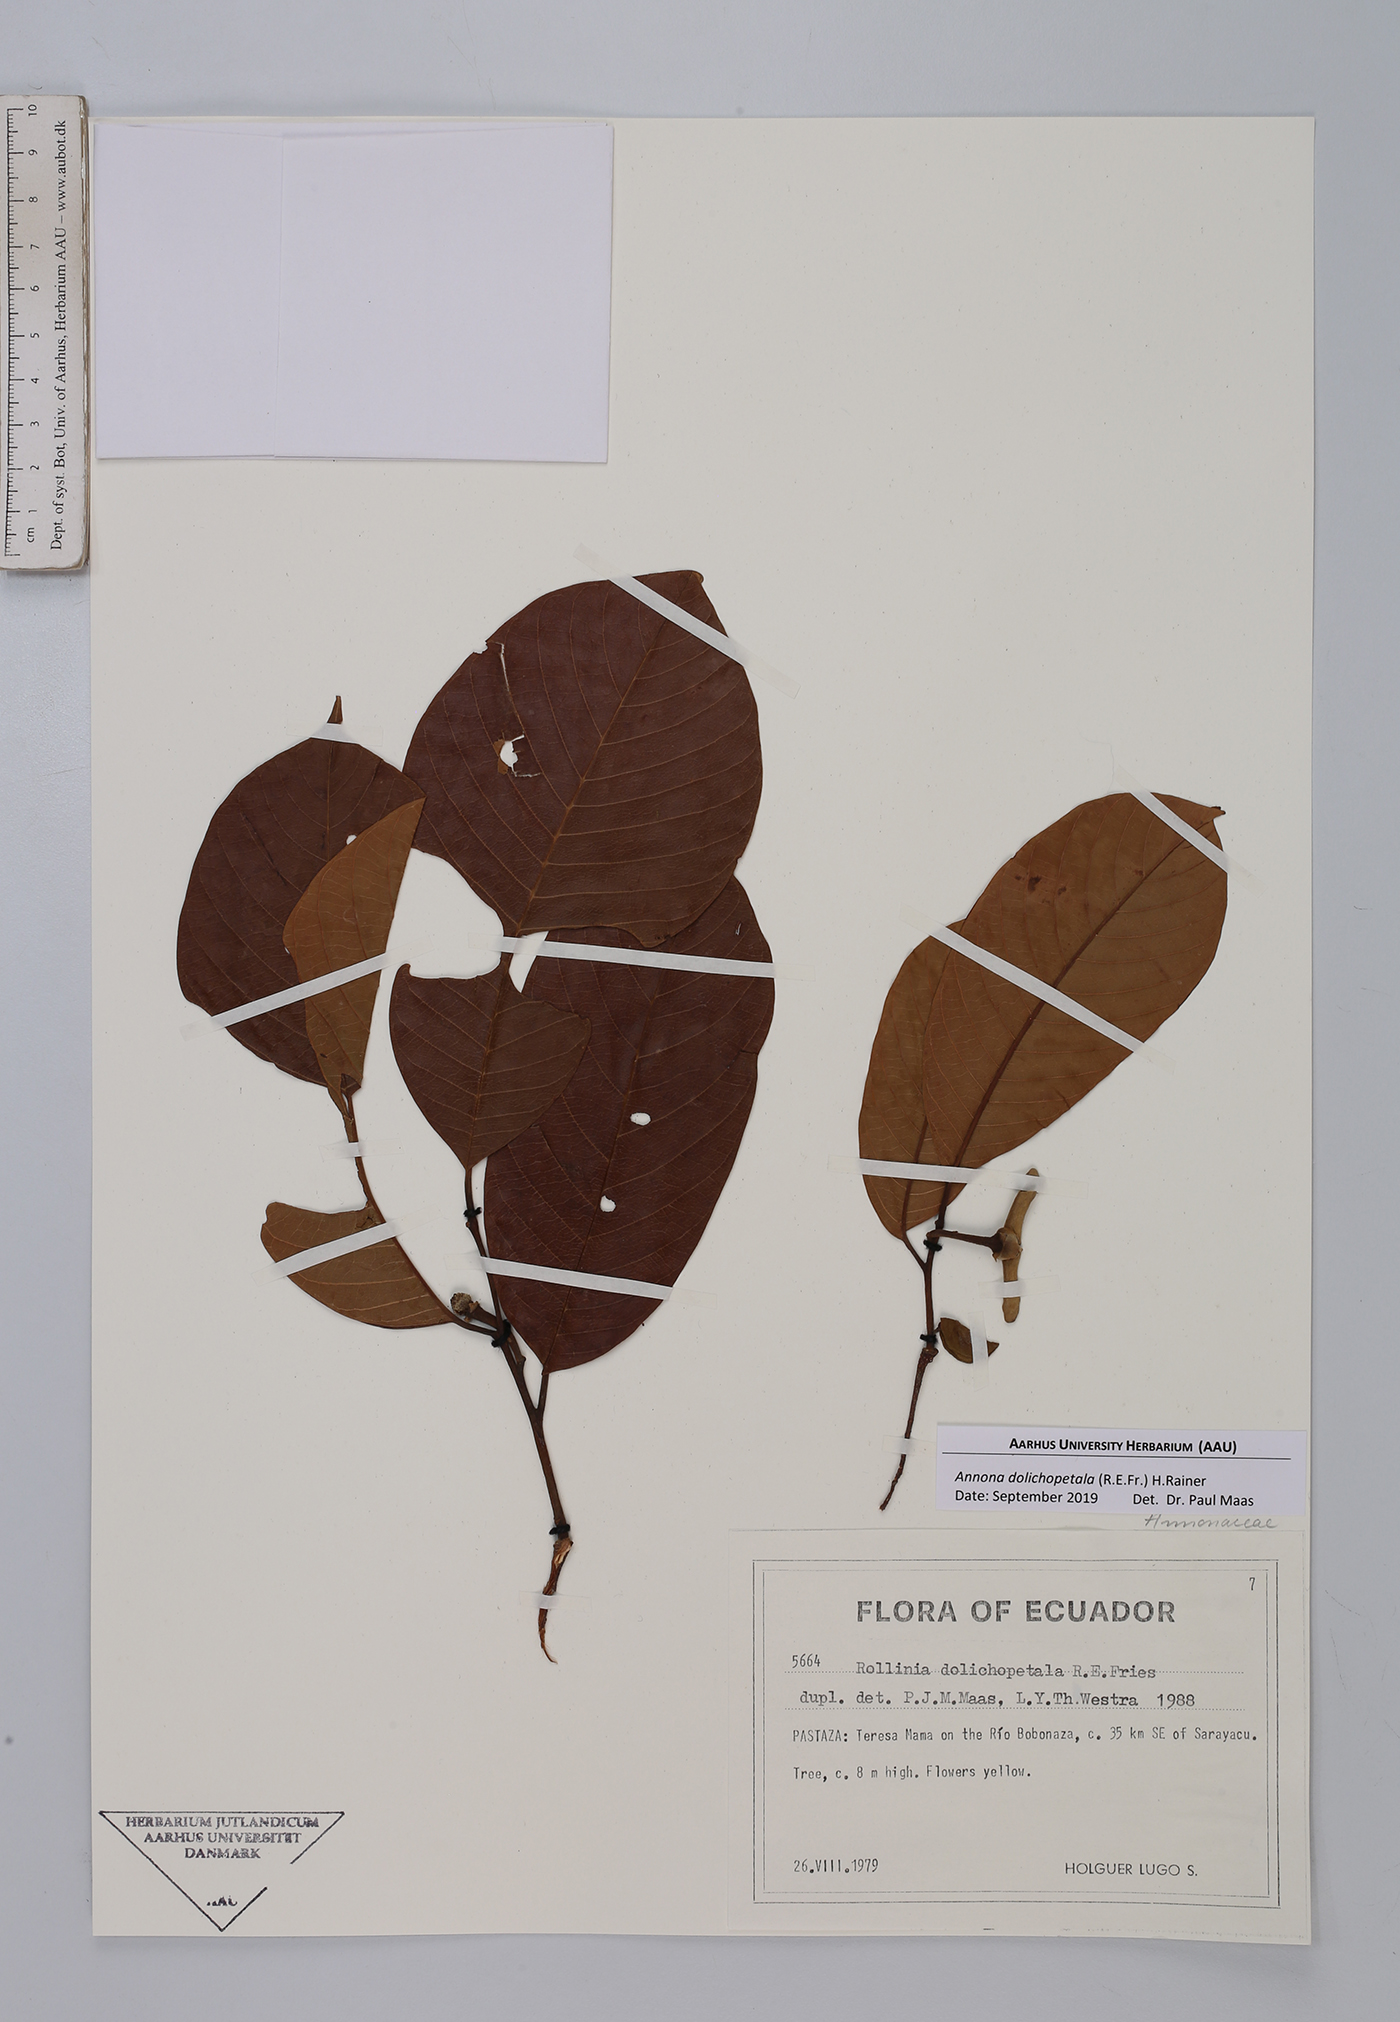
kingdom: Plantae
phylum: Tracheophyta
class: Magnoliopsida
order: Magnoliales
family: Annonaceae
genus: Annona
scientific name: Annona dolichopetala
